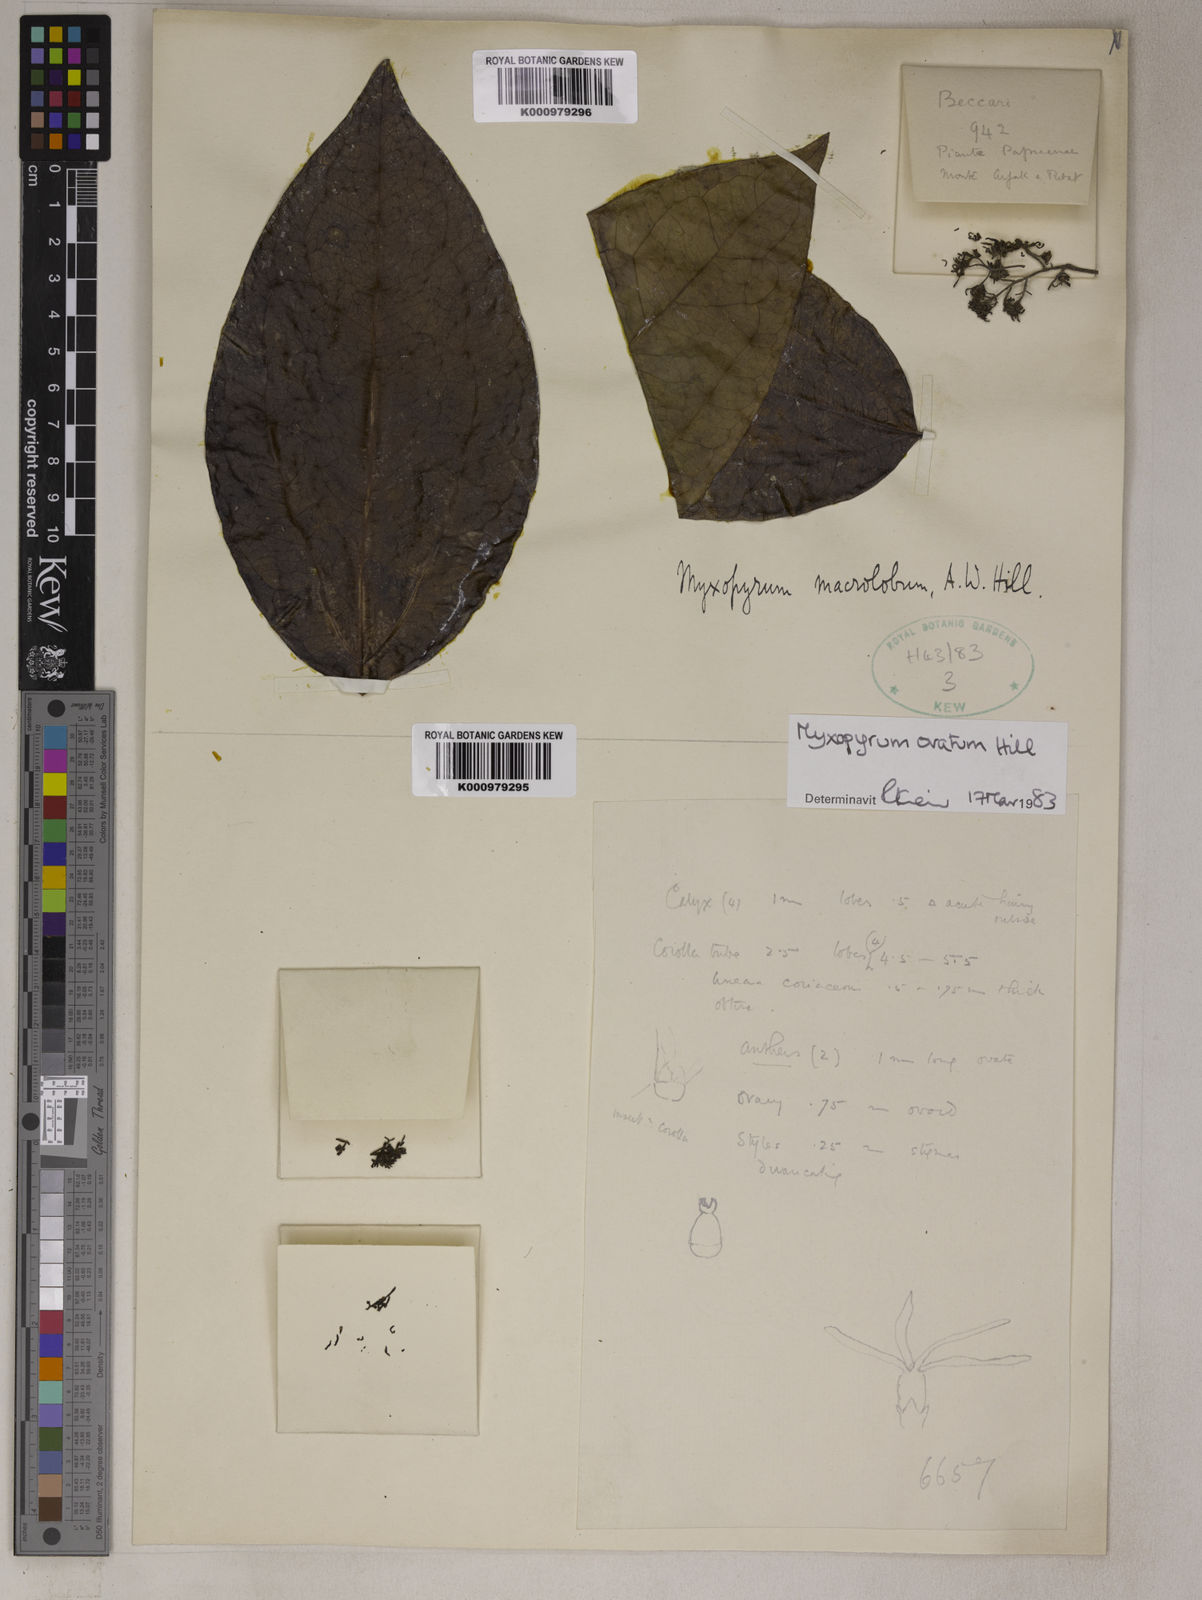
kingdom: Plantae
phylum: Tracheophyta
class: Magnoliopsida
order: Lamiales
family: Oleaceae
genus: Myxopyrum
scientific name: Myxopyrum ovatum
